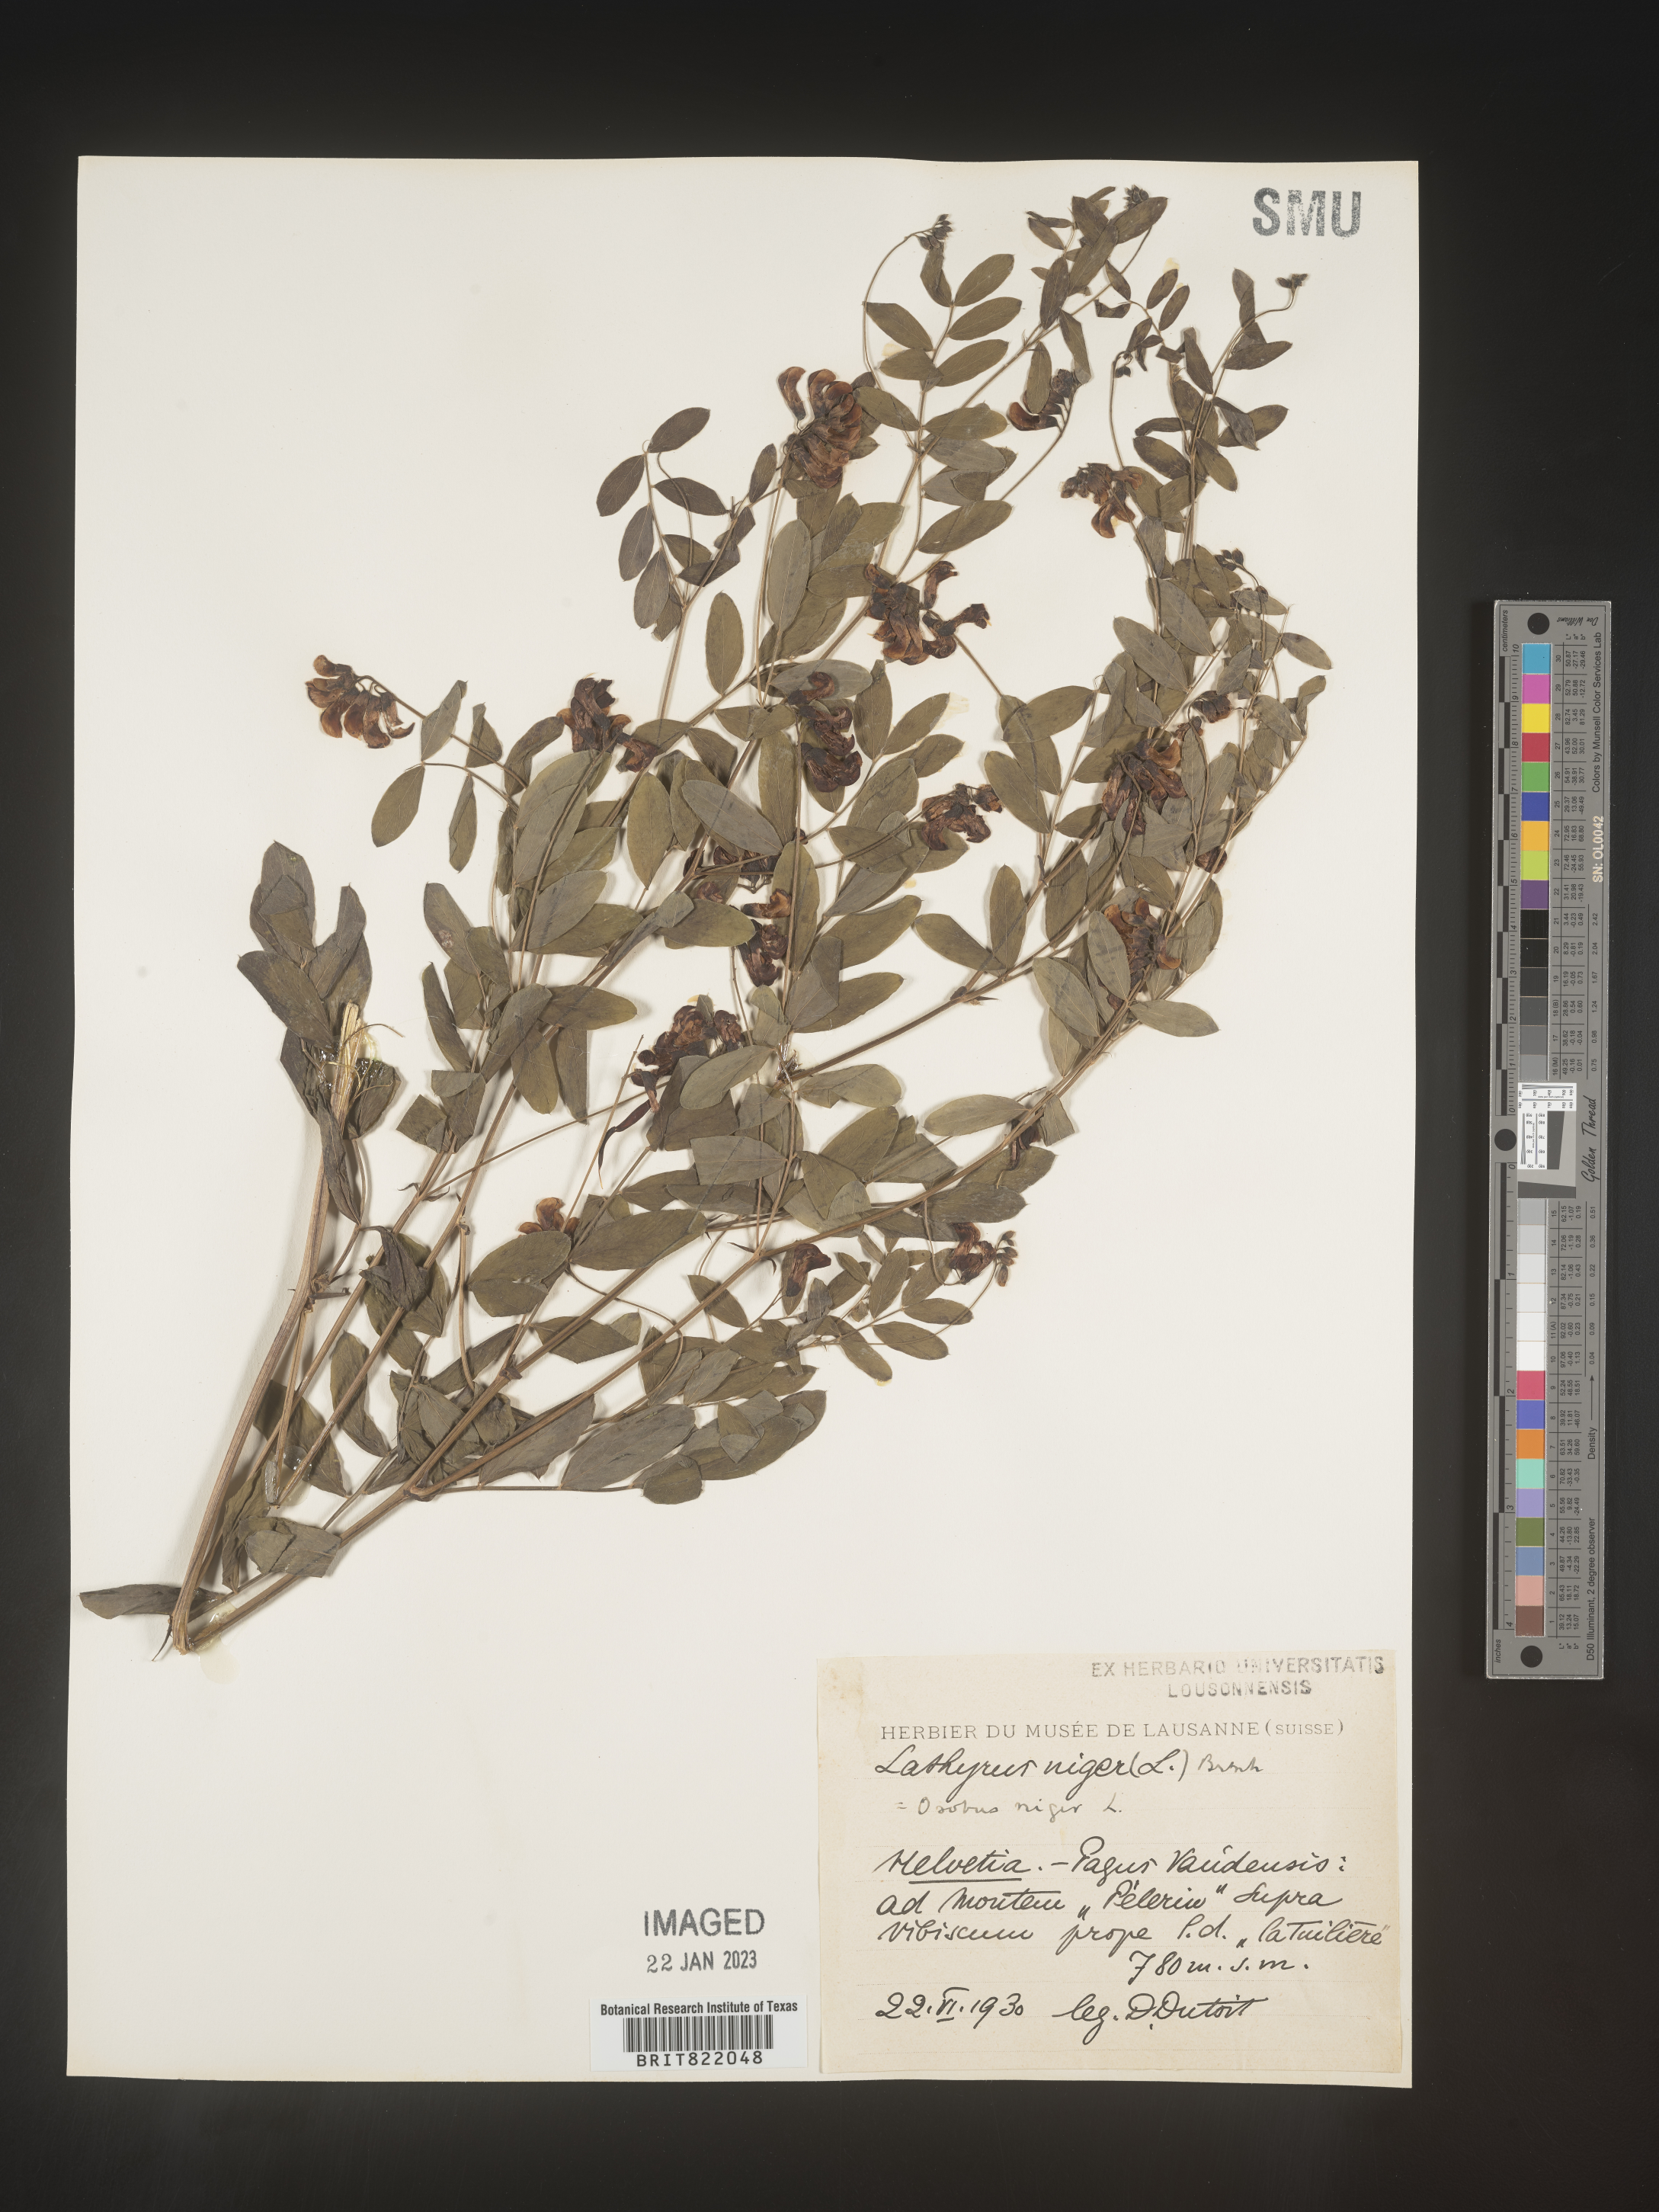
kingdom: Plantae
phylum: Tracheophyta
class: Magnoliopsida
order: Fabales
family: Fabaceae
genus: Lathyrus
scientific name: Lathyrus
